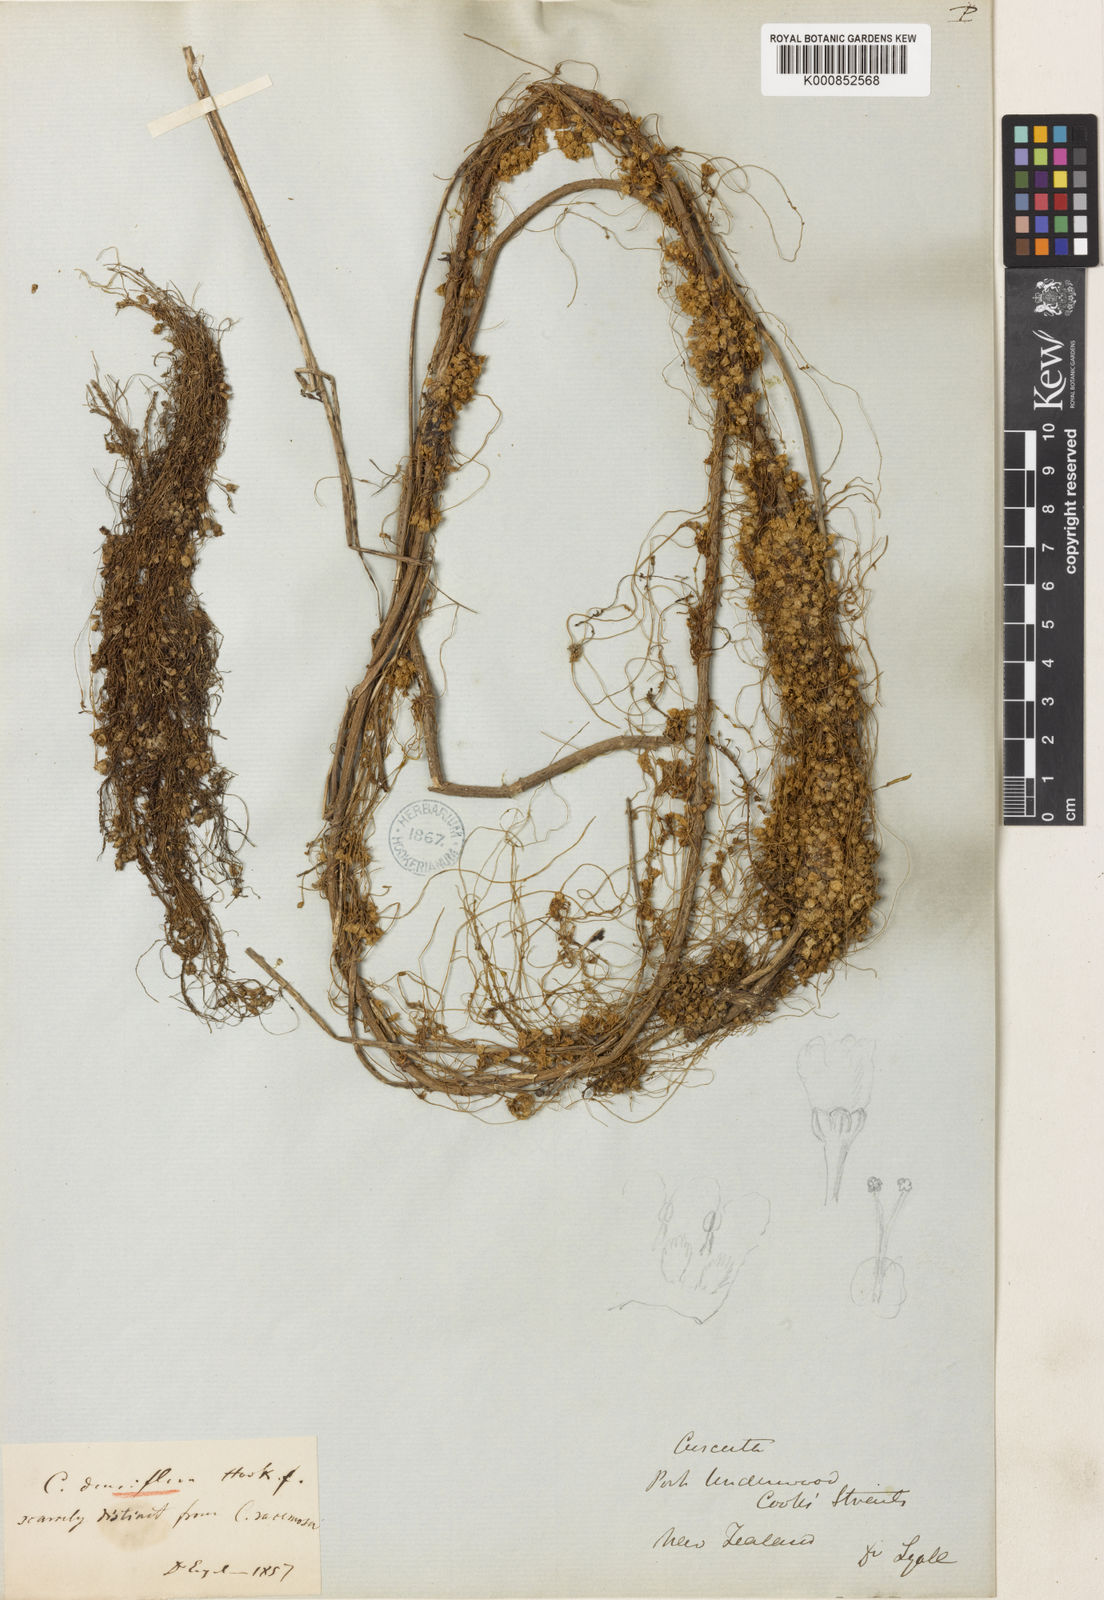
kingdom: Plantae
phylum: Tracheophyta
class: Magnoliopsida
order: Solanales
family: Convolvulaceae
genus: Cuscuta
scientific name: Cuscuta suaveolens
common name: Fringed dodder
